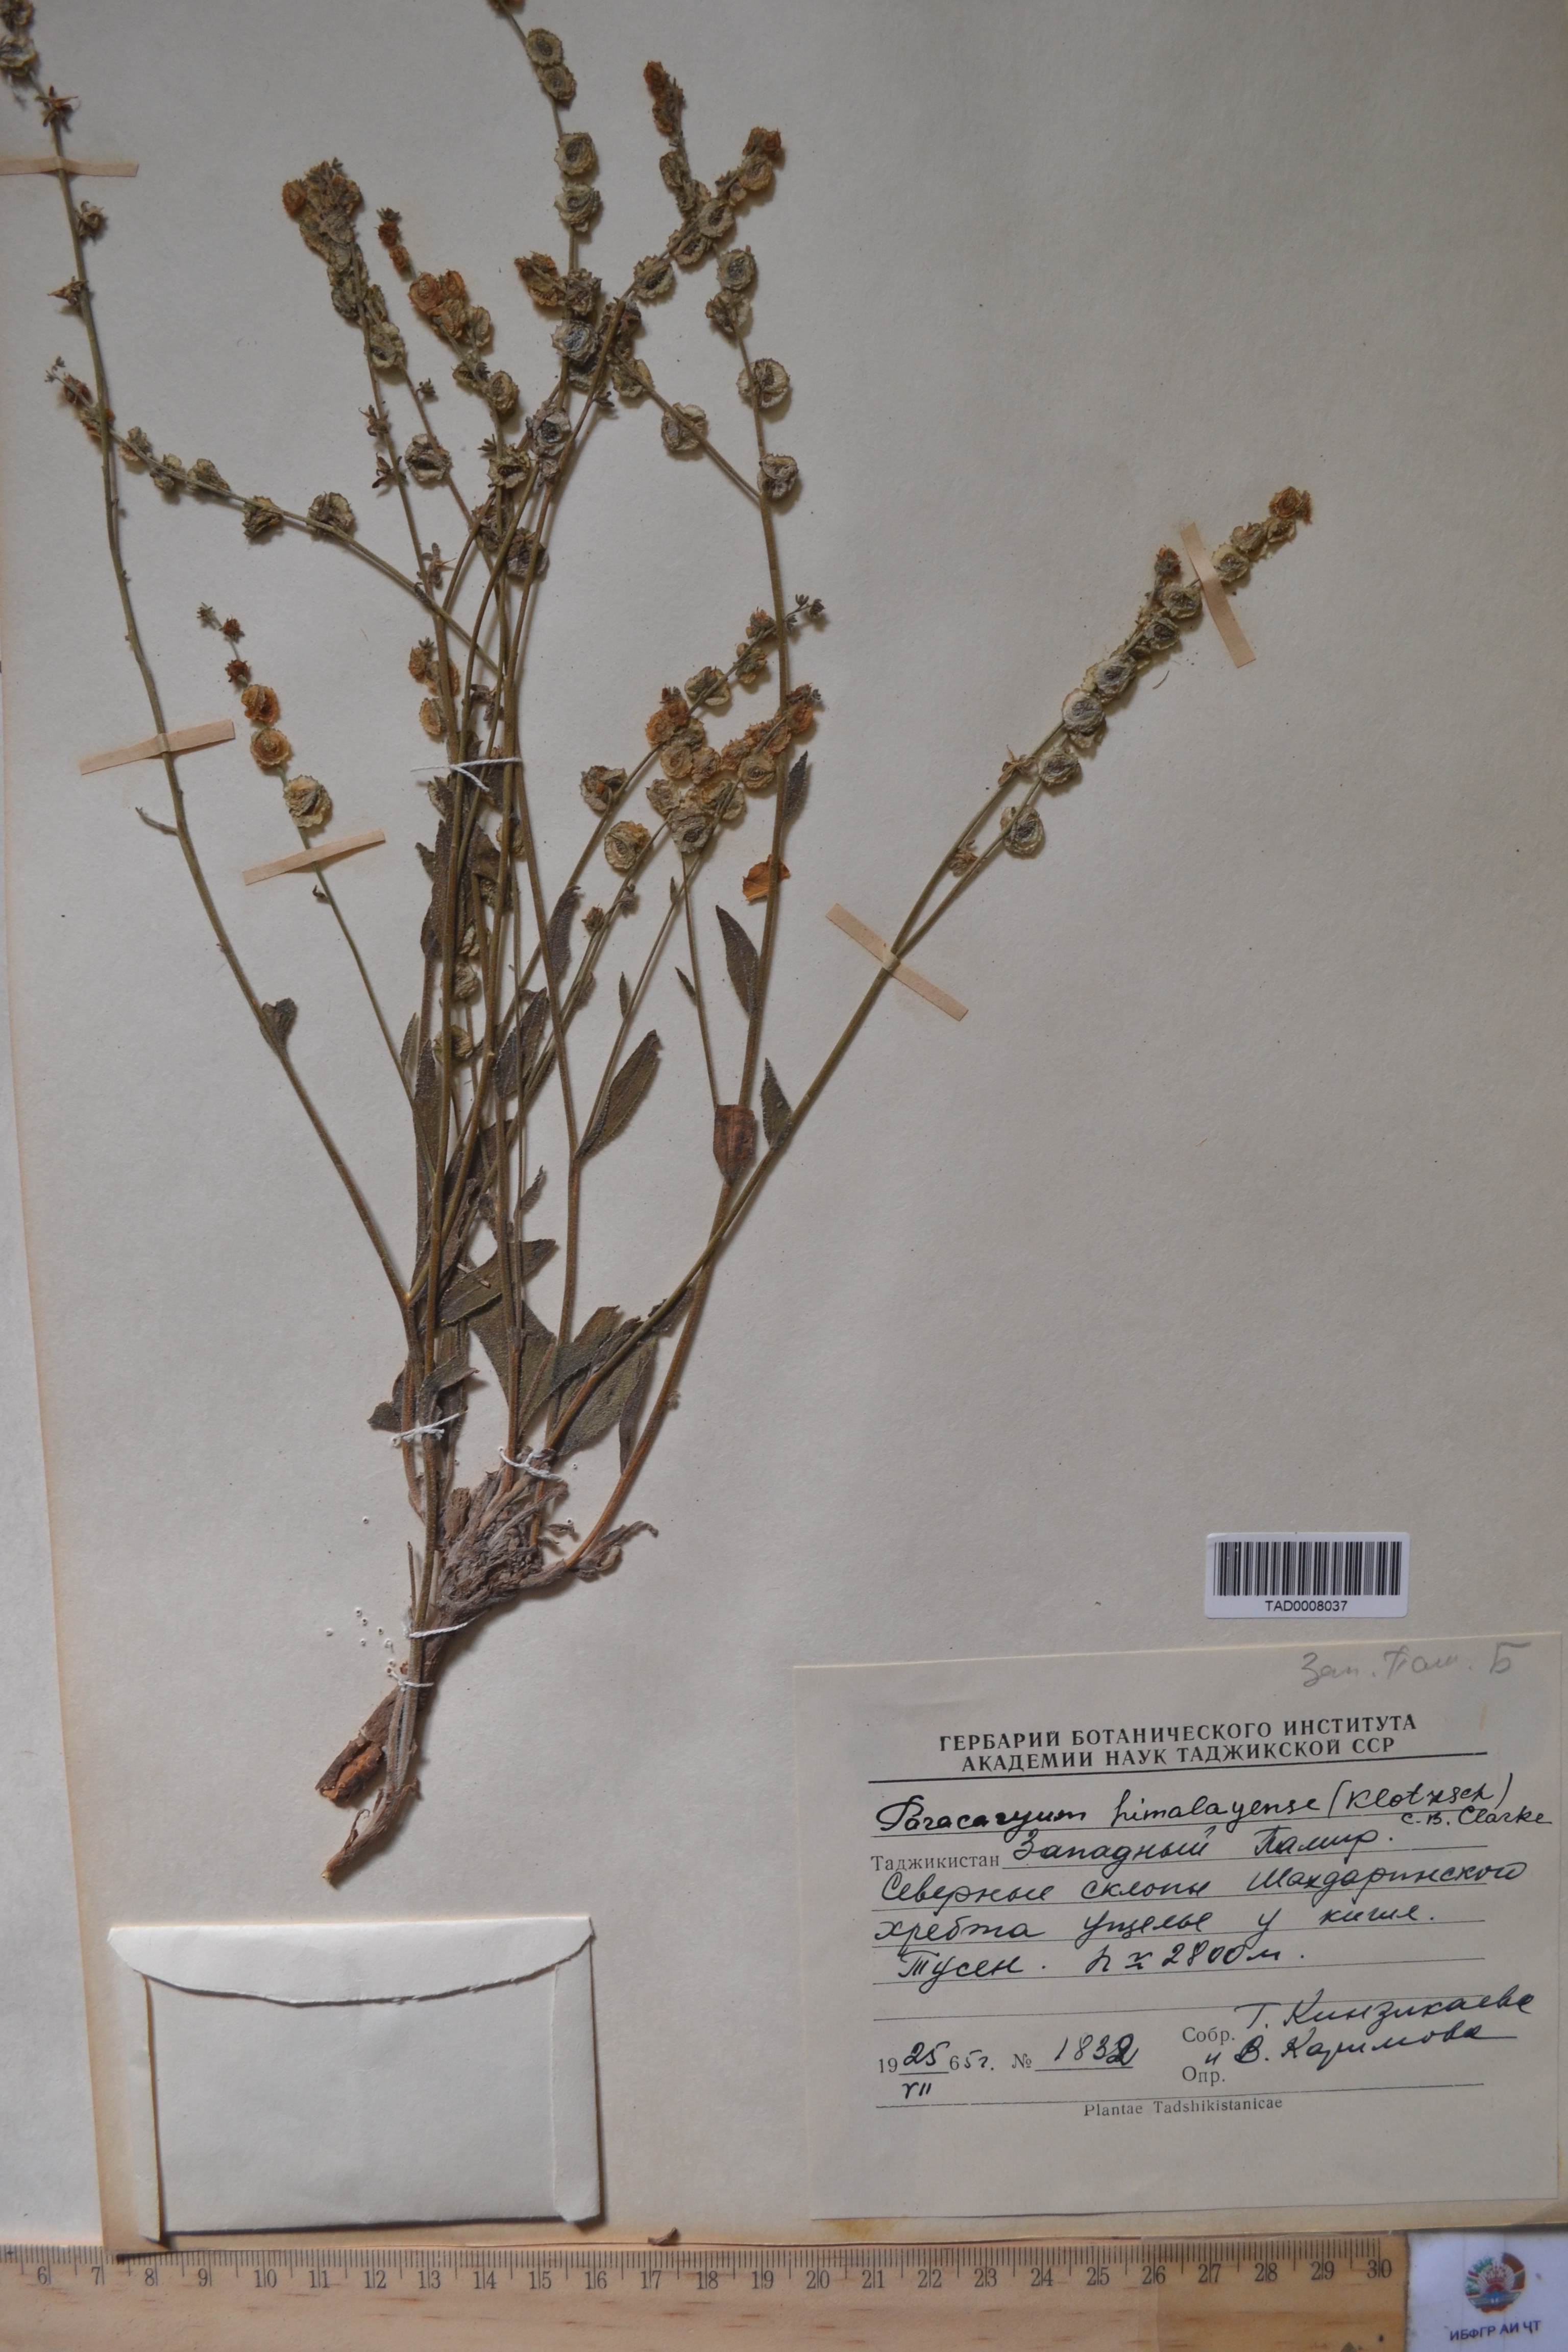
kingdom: Plantae
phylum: Tracheophyta
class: Magnoliopsida
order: Boraginales
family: Boraginaceae
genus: Paracaryum
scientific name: Paracaryum himalayense
